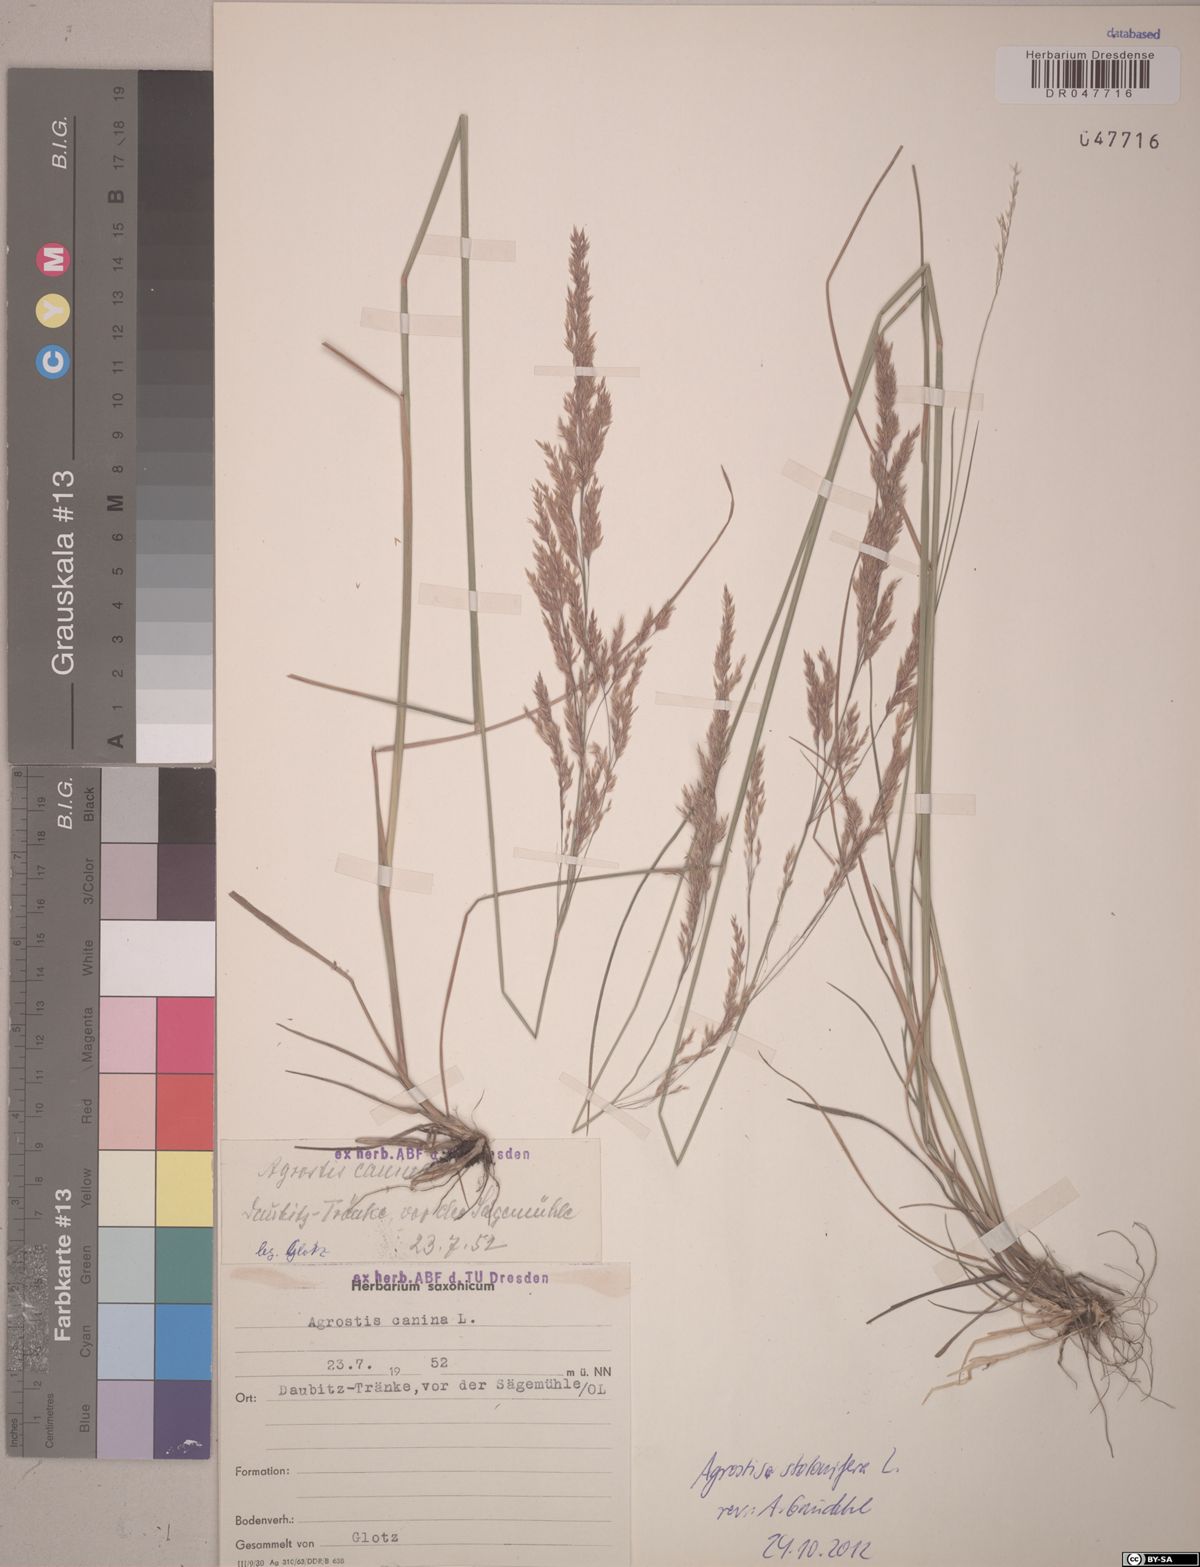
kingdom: Plantae
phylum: Tracheophyta
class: Liliopsida
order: Poales
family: Poaceae
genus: Agrostis
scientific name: Agrostis stolonifera
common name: Creeping bentgrass
